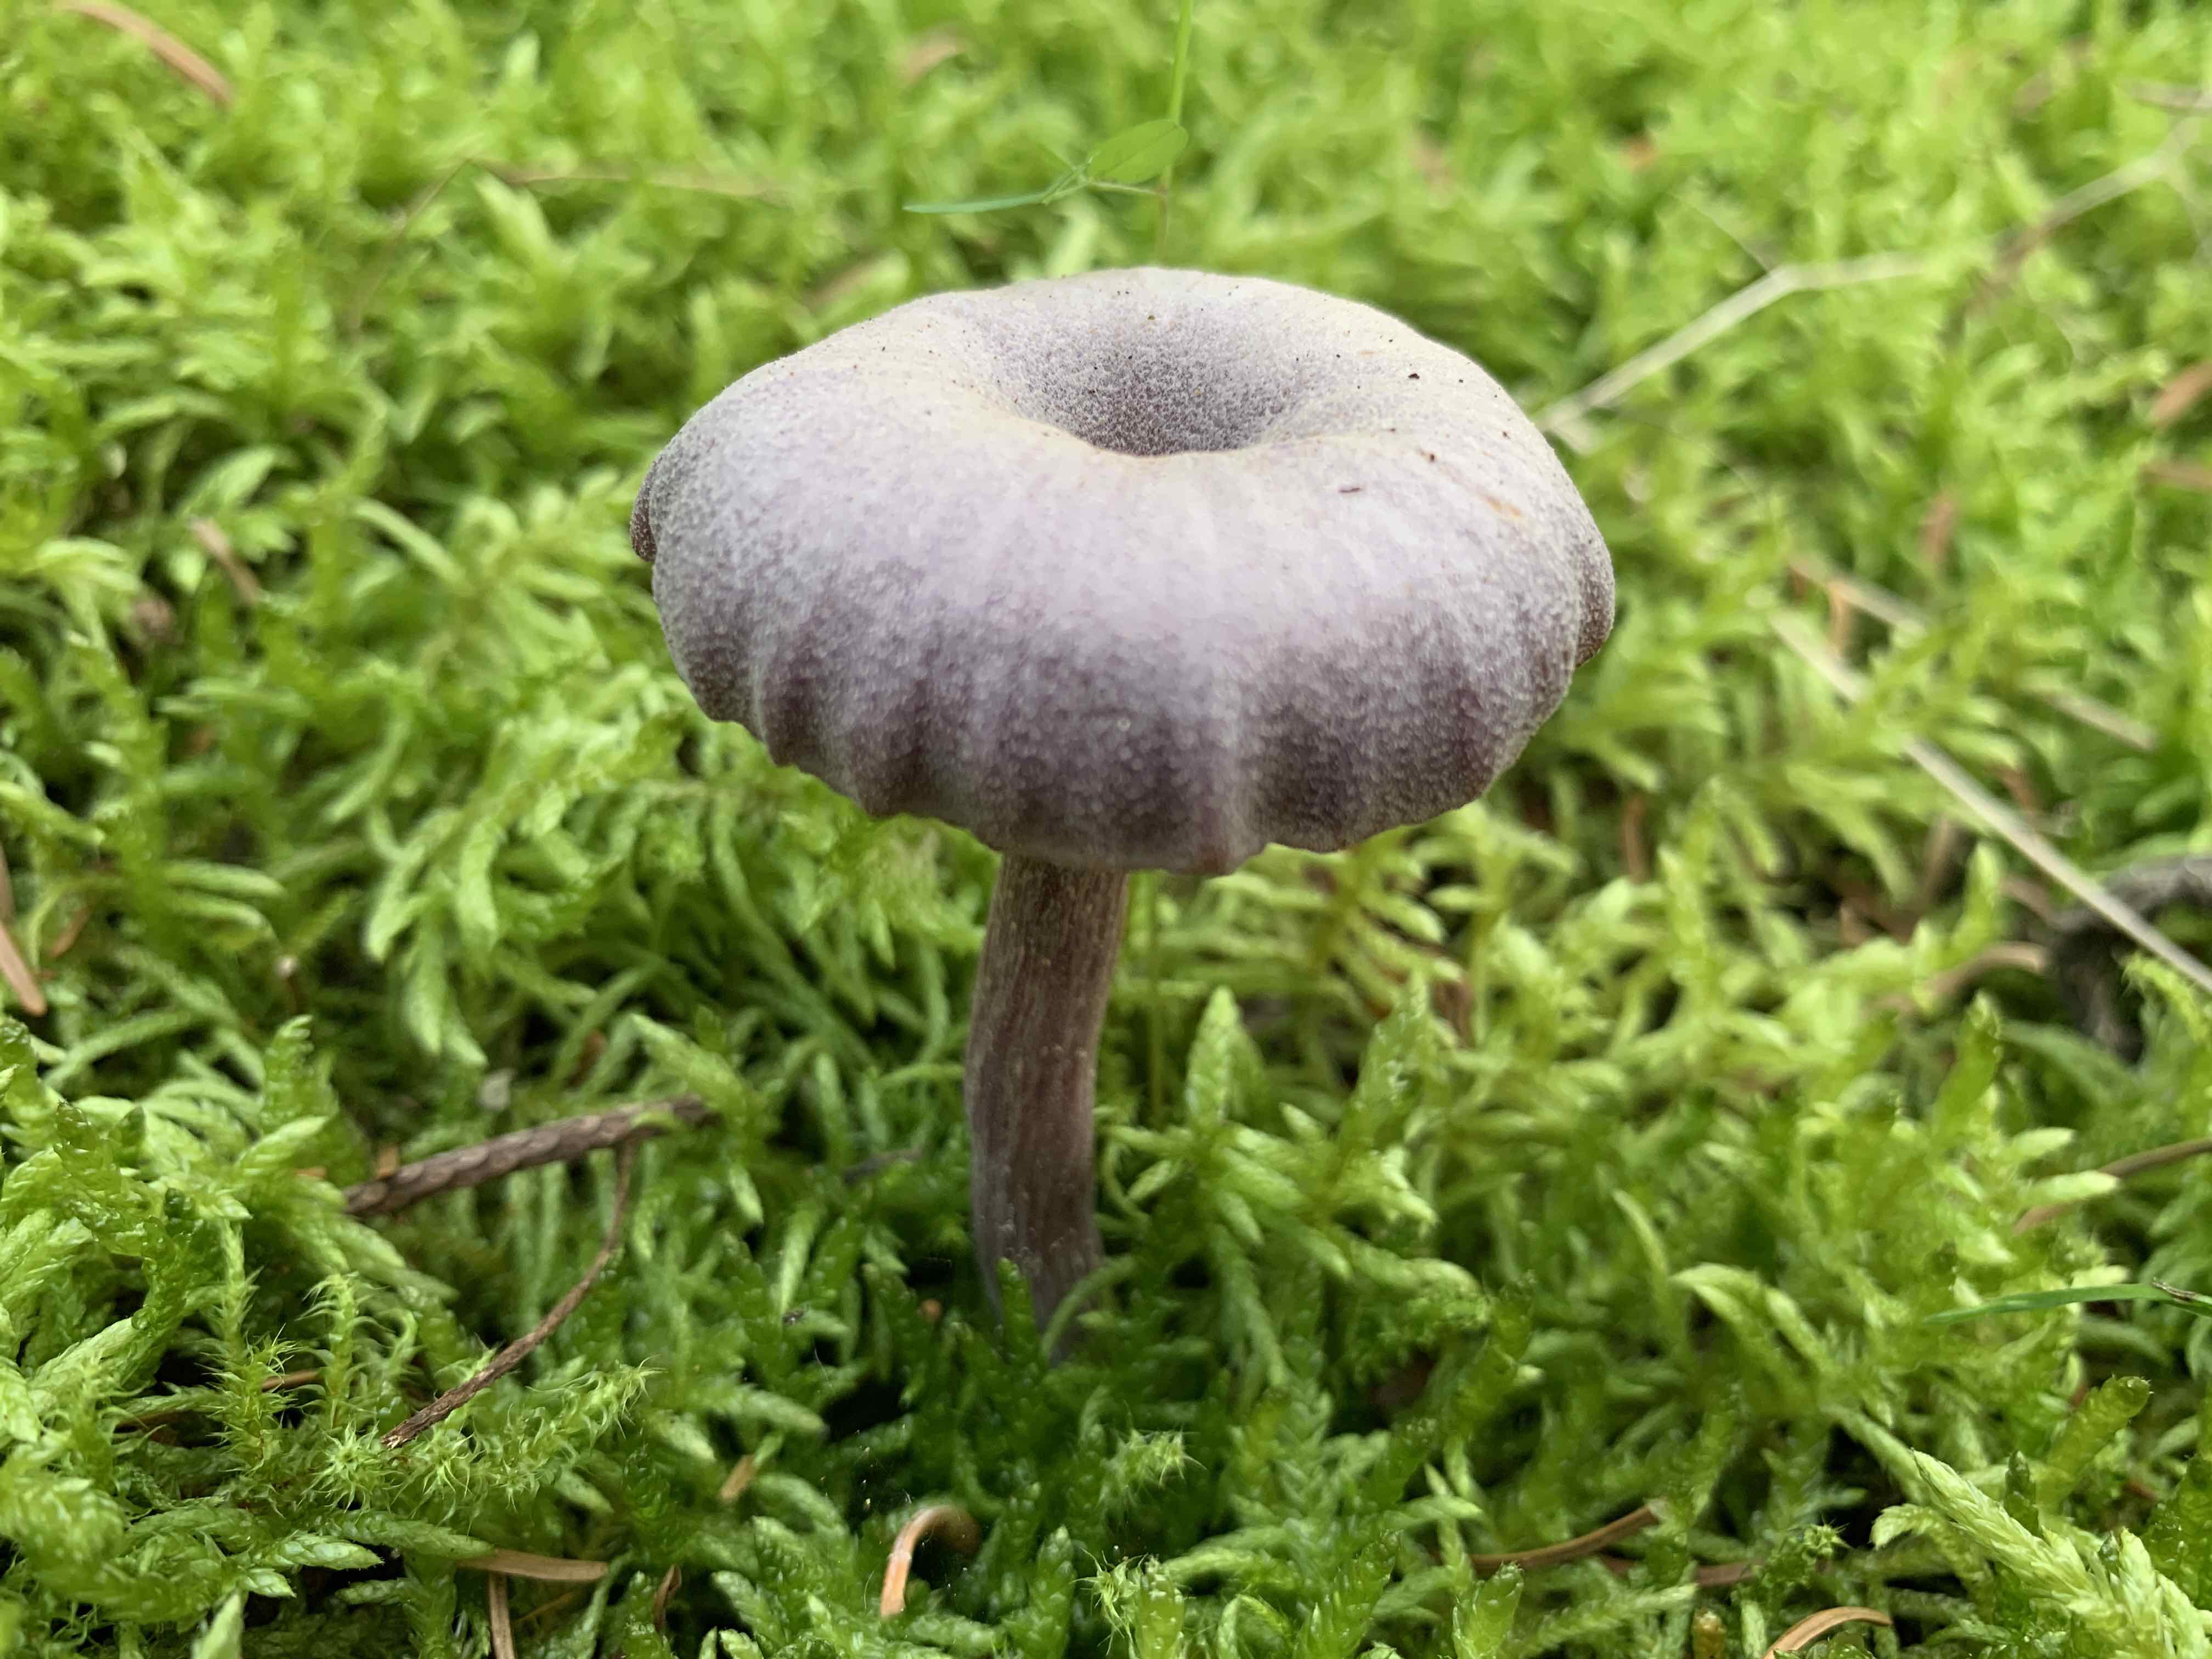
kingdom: Fungi
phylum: Basidiomycota
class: Agaricomycetes
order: Agaricales
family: Hydnangiaceae
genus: Laccaria
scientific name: Laccaria amethystina
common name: violet ametysthat
